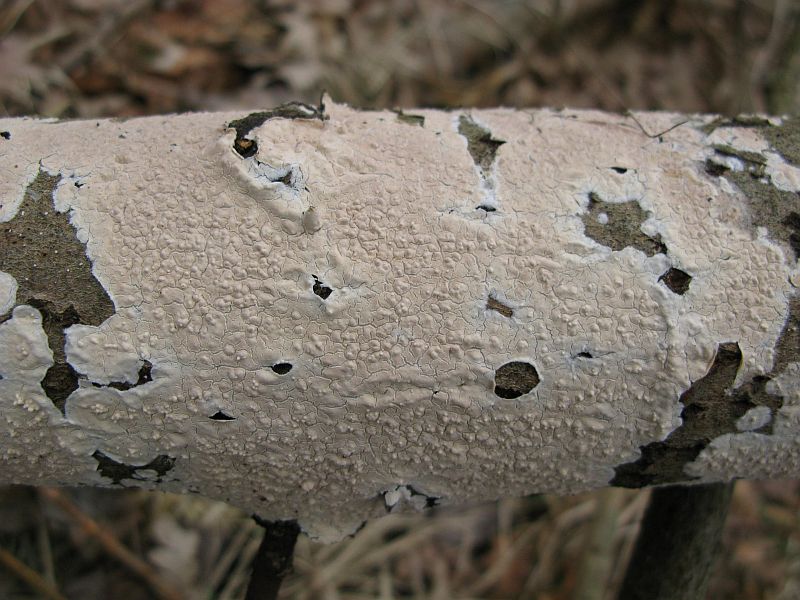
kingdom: Fungi
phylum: Basidiomycota
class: Agaricomycetes
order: Agaricales
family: Physalacriaceae
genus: Cylindrobasidium
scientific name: Cylindrobasidium evolvens
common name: sprækkehinde
